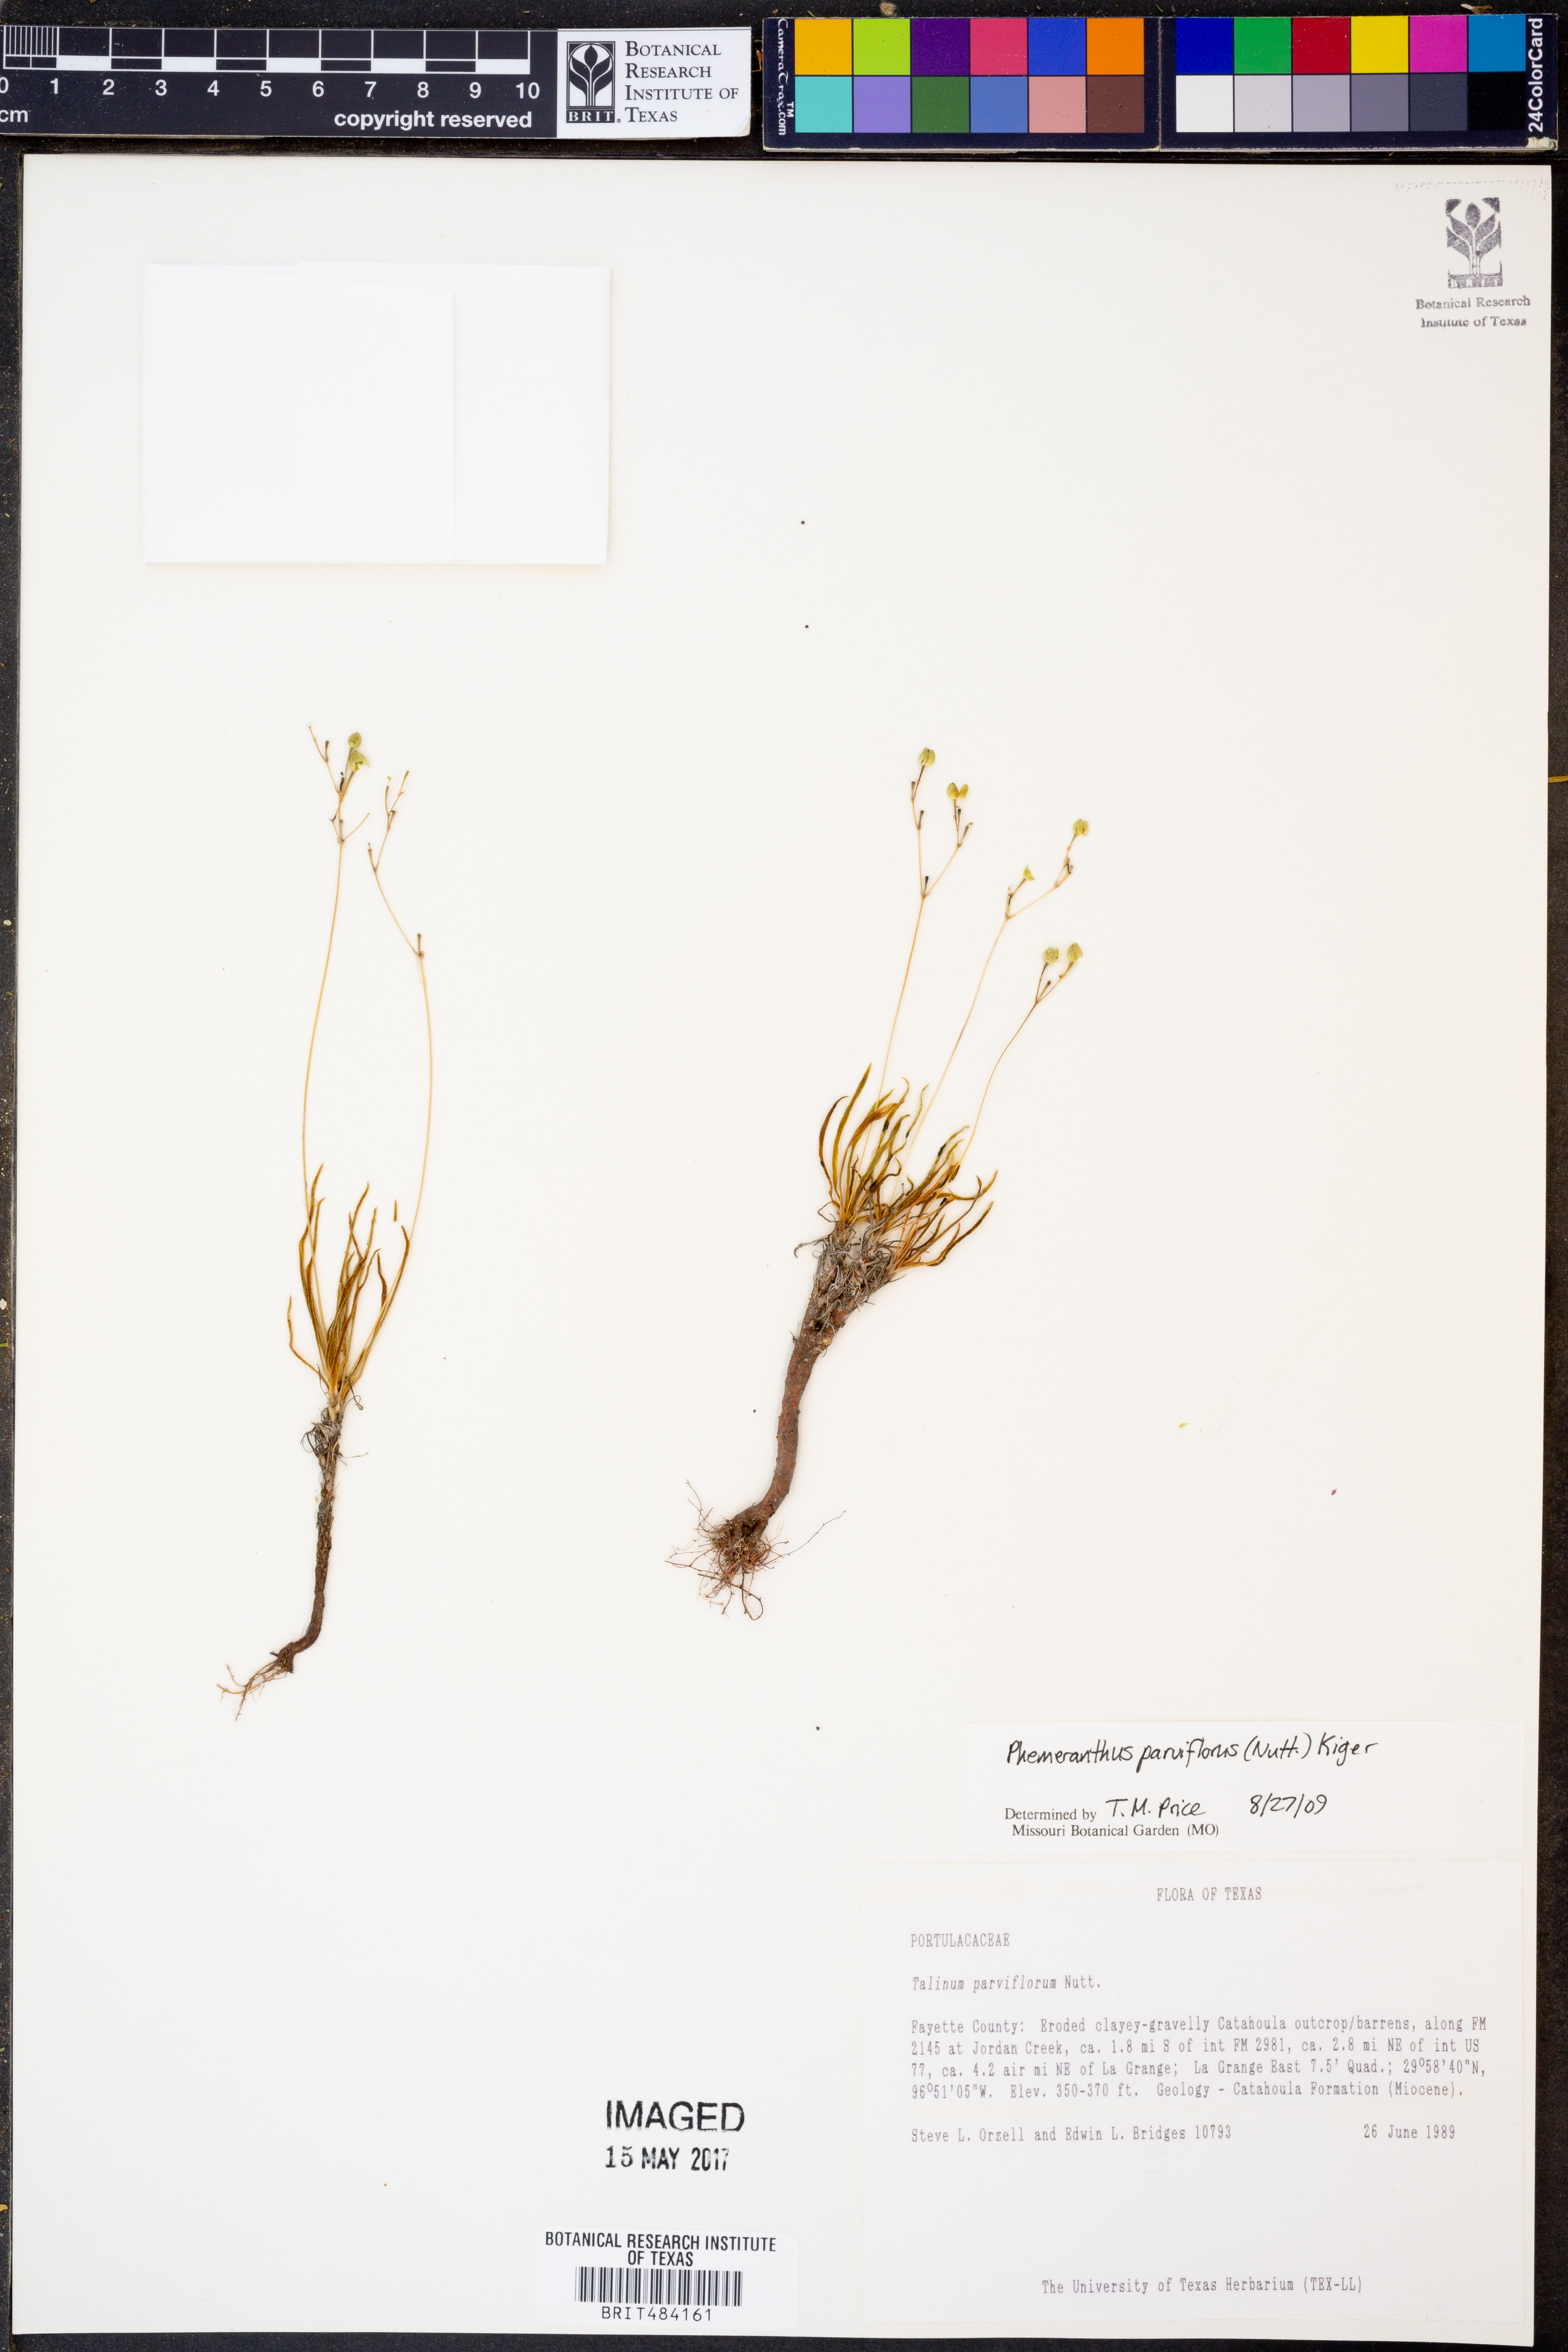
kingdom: Plantae
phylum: Tracheophyta
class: Magnoliopsida
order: Caryophyllales
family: Montiaceae
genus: Phemeranthus
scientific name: Phemeranthus parviflorus
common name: Sunbright
